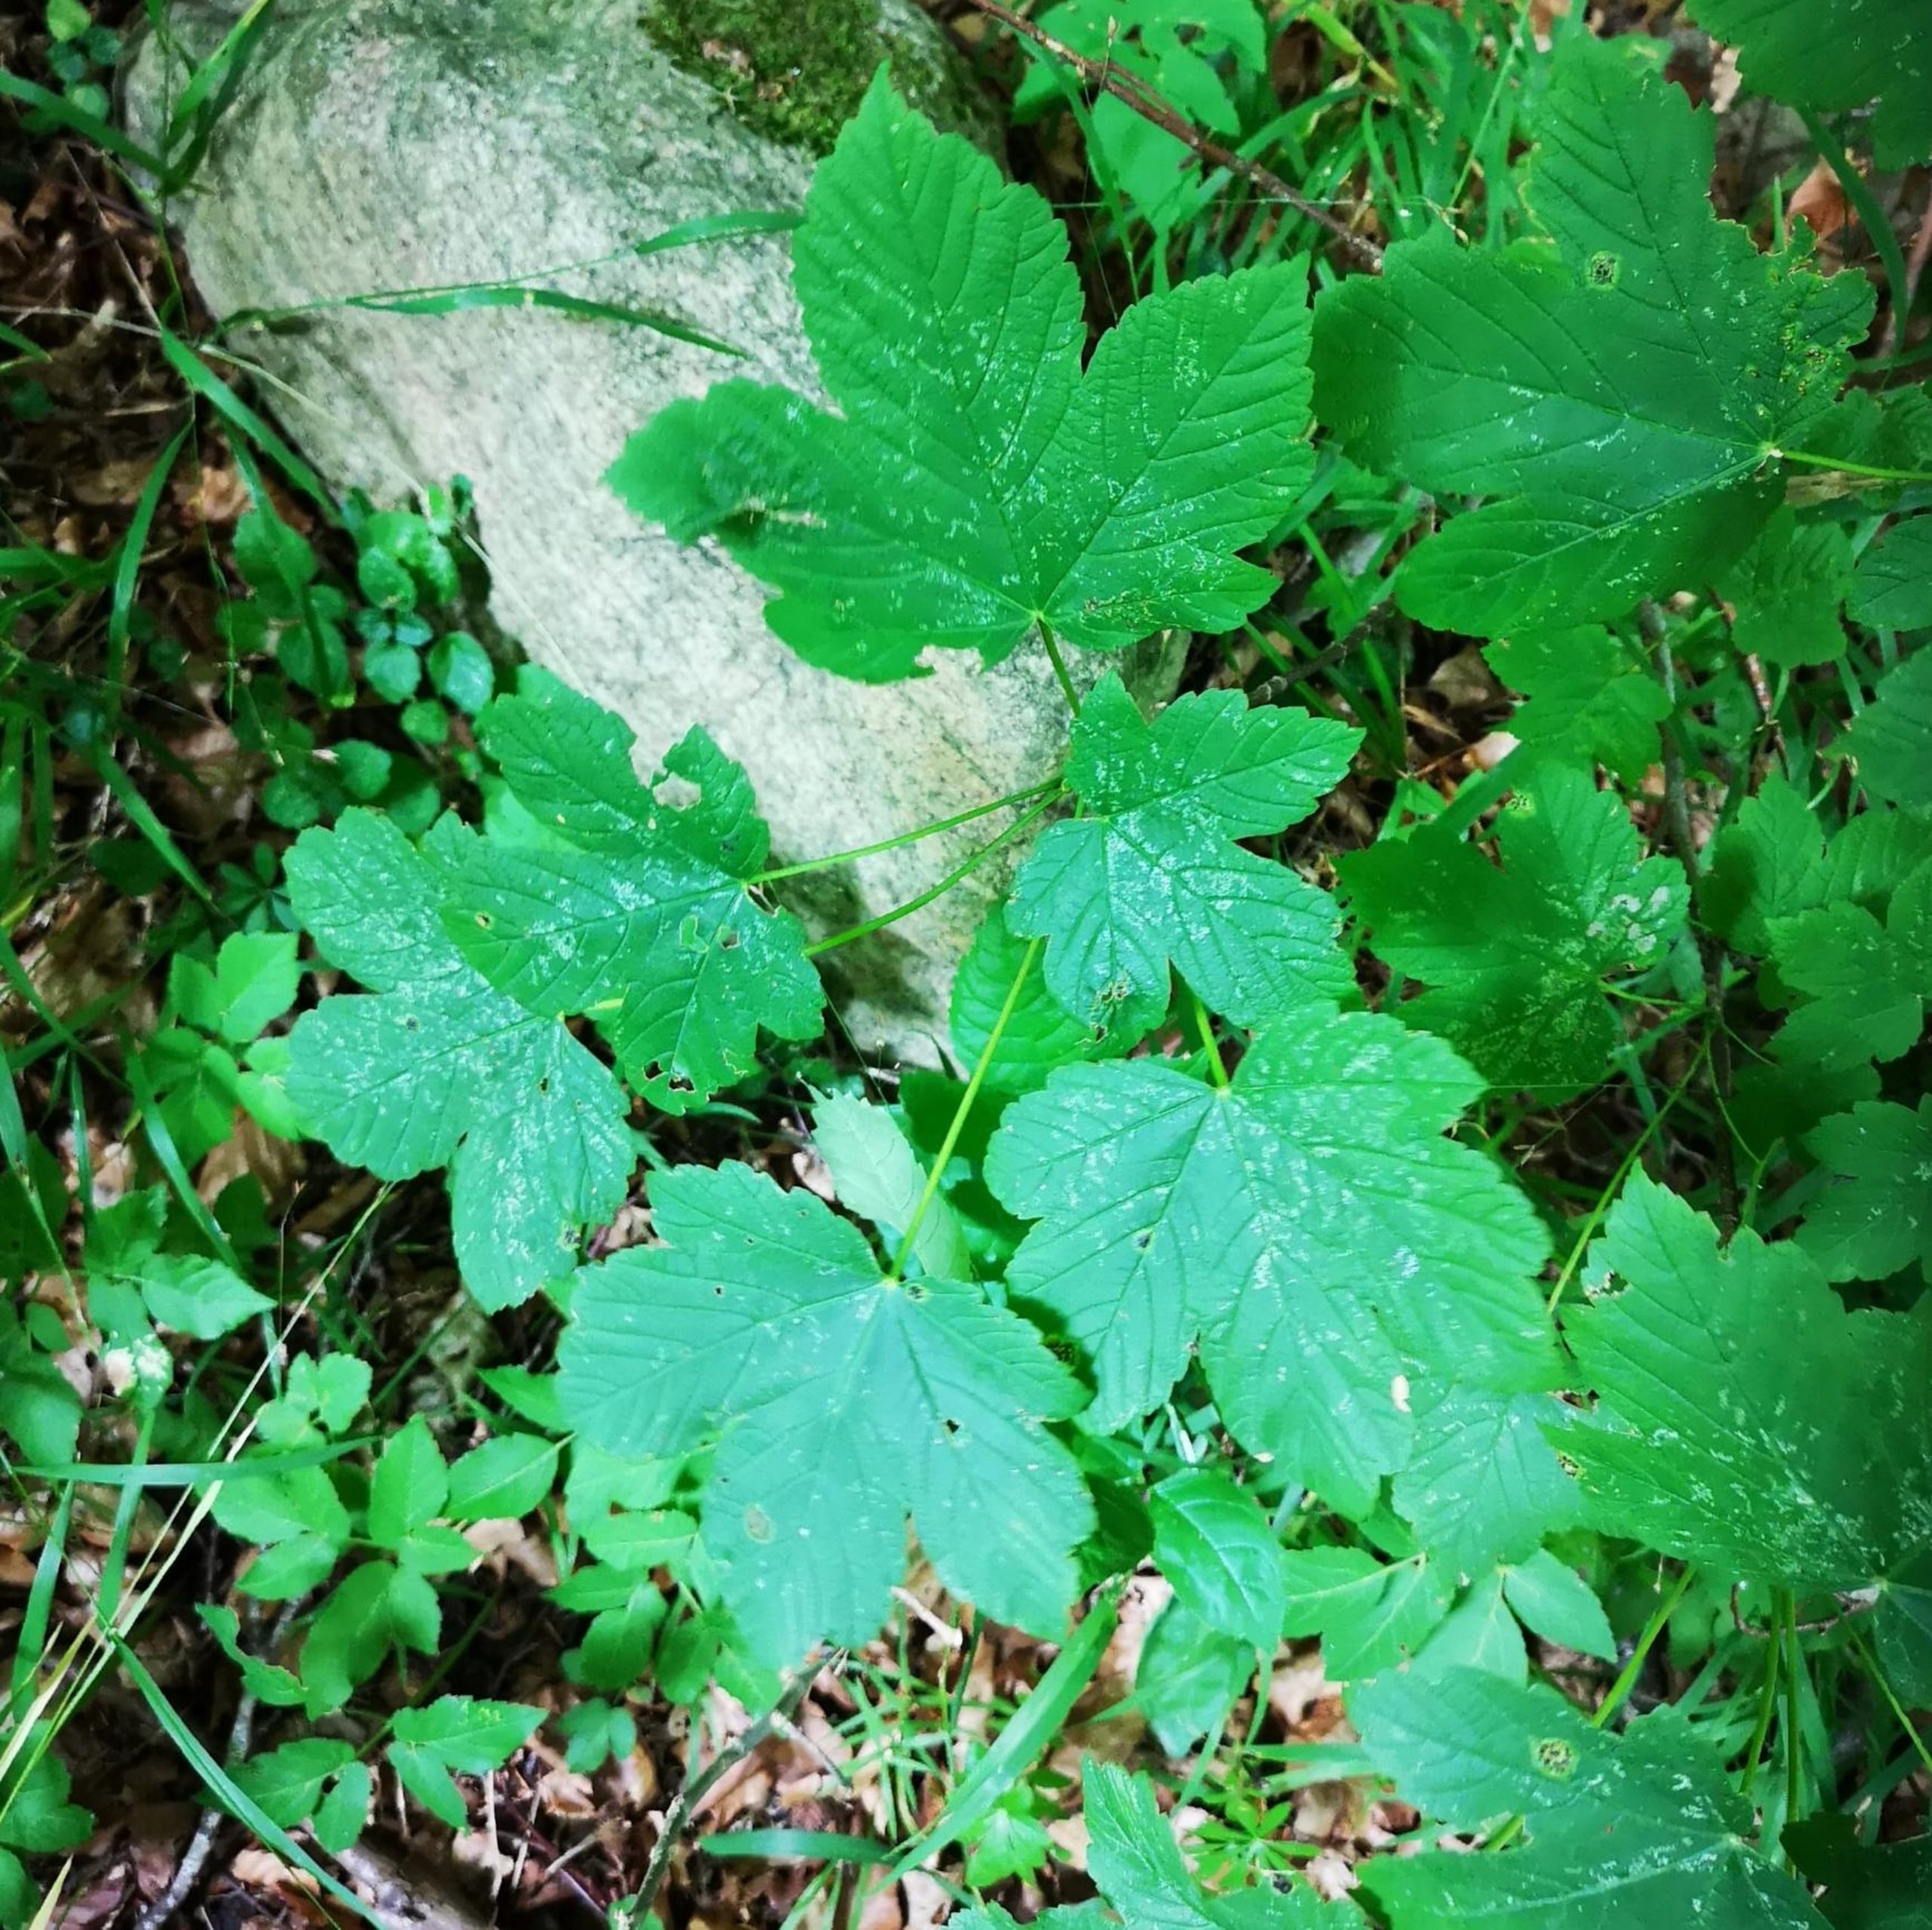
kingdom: Plantae
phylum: Tracheophyta
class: Magnoliopsida
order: Sapindales
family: Sapindaceae
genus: Acer
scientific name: Acer pseudoplatanus
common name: Ahorn
